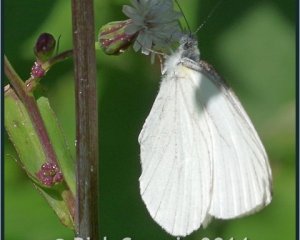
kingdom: Animalia
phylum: Arthropoda
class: Insecta
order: Lepidoptera
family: Pieridae
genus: Pieris
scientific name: Pieris oleracea
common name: Mustard White
